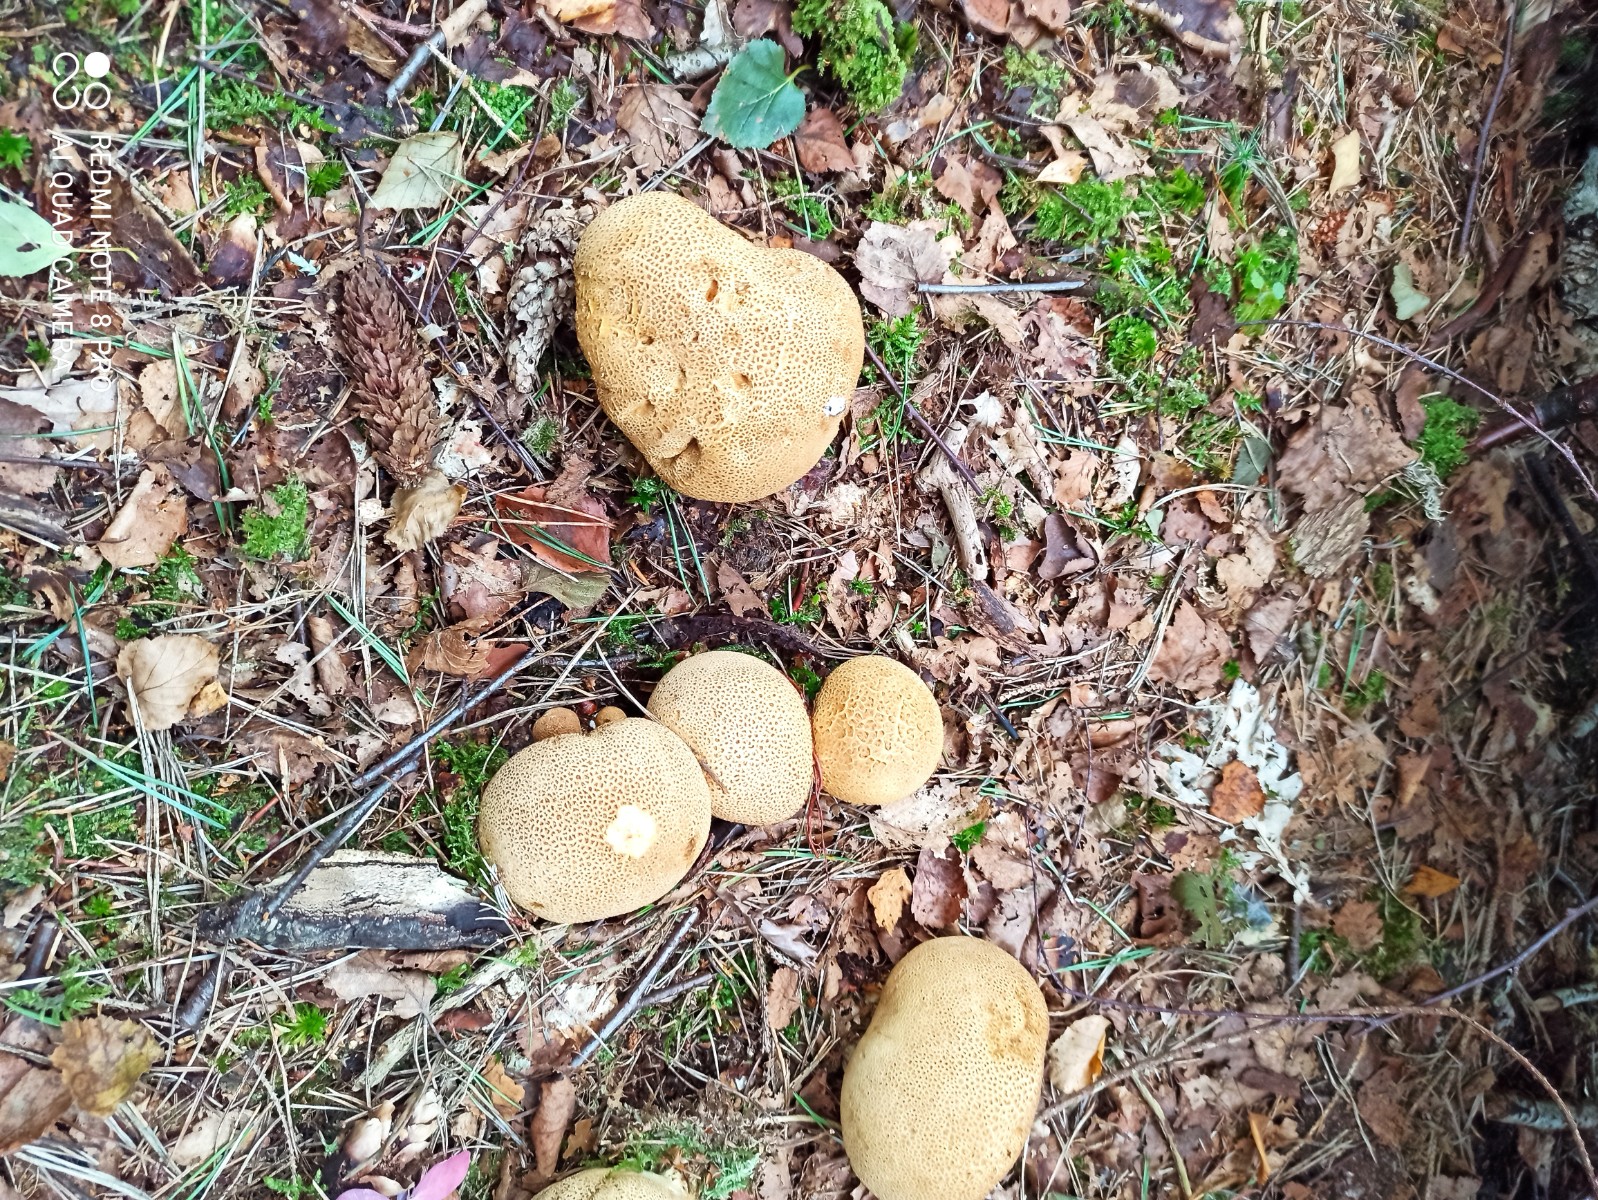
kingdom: Fungi
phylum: Basidiomycota
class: Agaricomycetes
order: Boletales
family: Sclerodermataceae
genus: Scleroderma
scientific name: Scleroderma citrinum
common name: almindelig bruskbold
